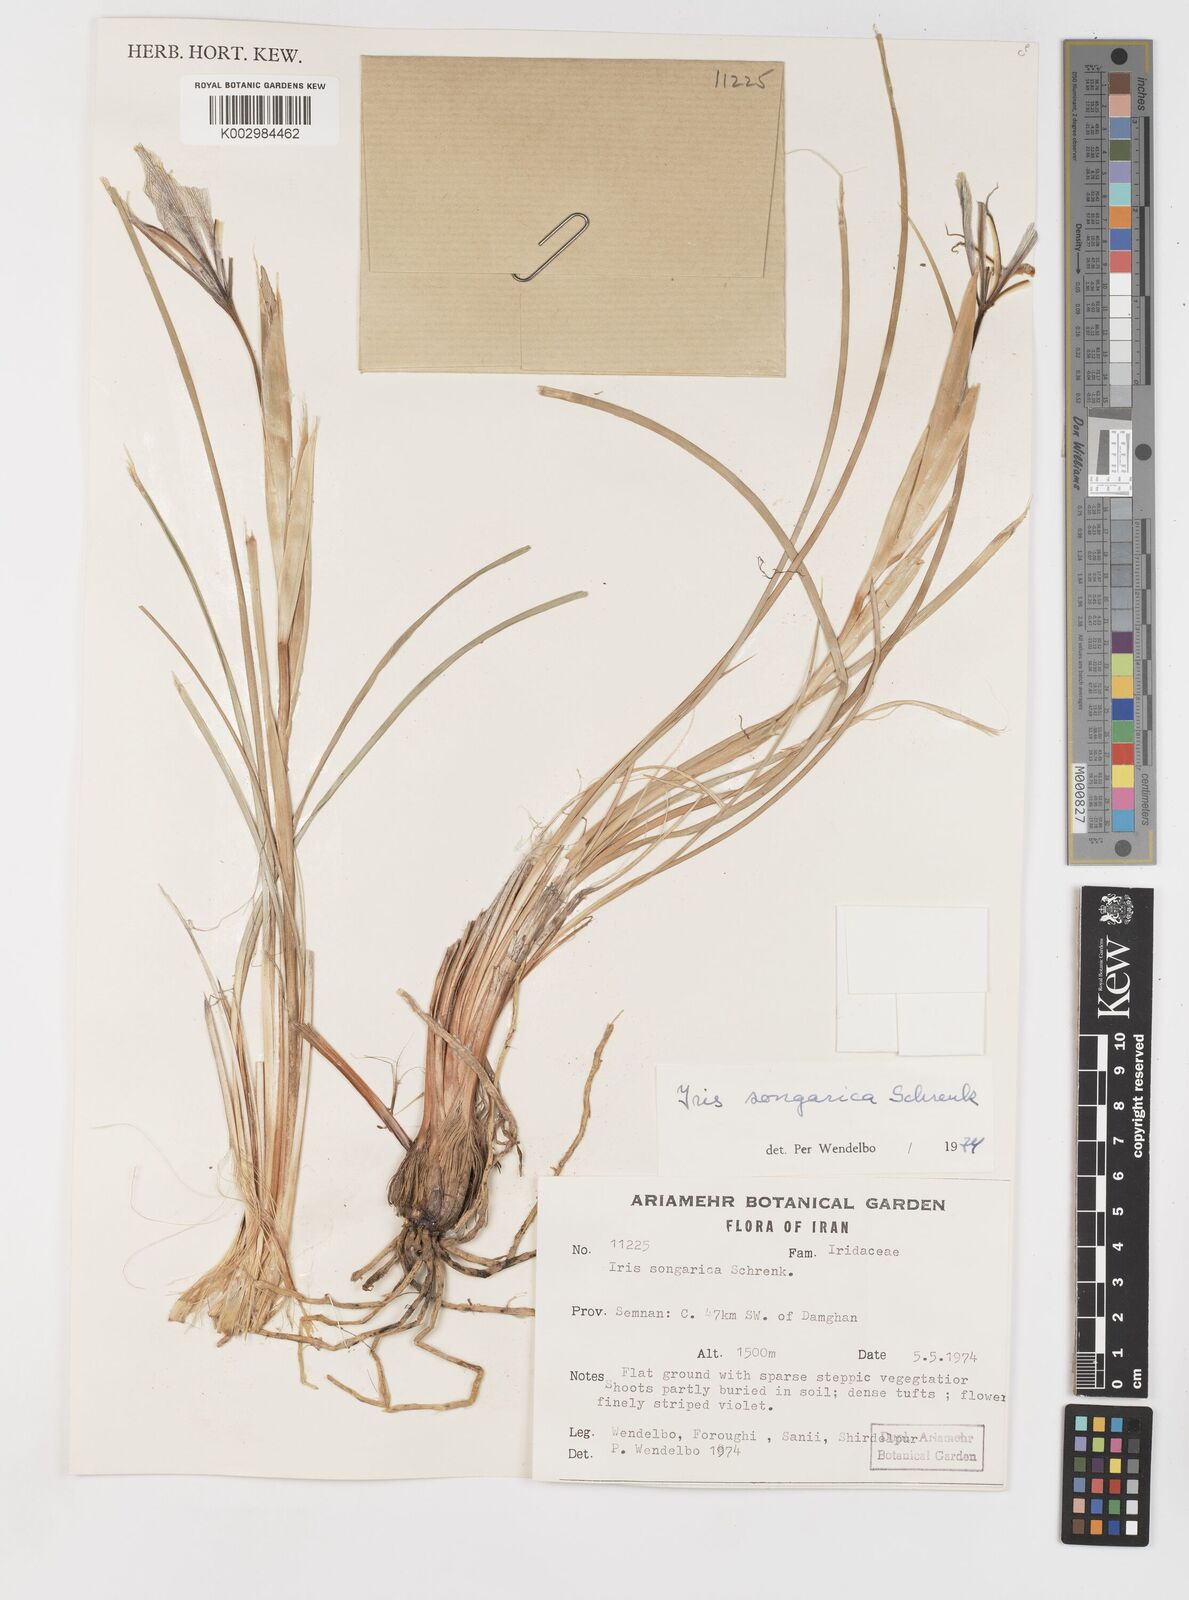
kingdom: Plantae
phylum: Tracheophyta
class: Liliopsida
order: Asparagales
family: Iridaceae
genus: Iris
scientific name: Iris songarica
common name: Songar iris
